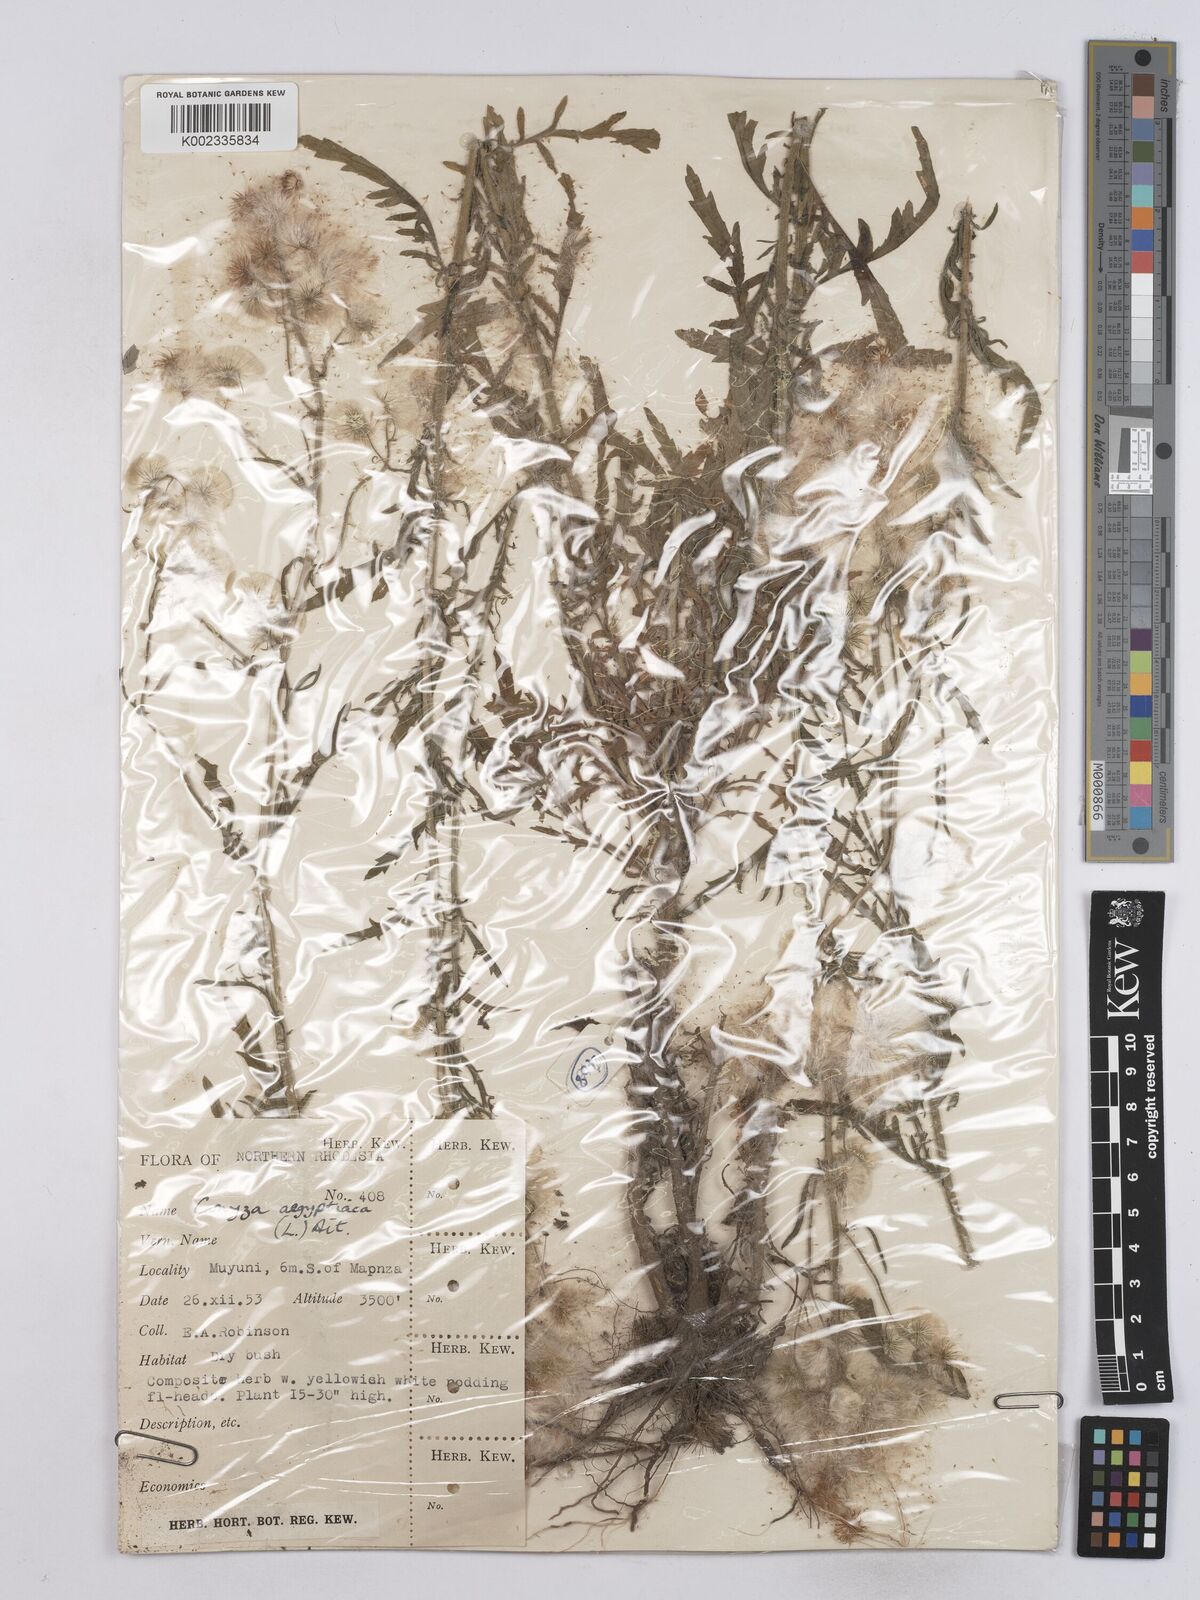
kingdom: Plantae
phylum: Tracheophyta
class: Magnoliopsida
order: Asterales
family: Asteraceae
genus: Nidorella
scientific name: Nidorella aegyptiaca
